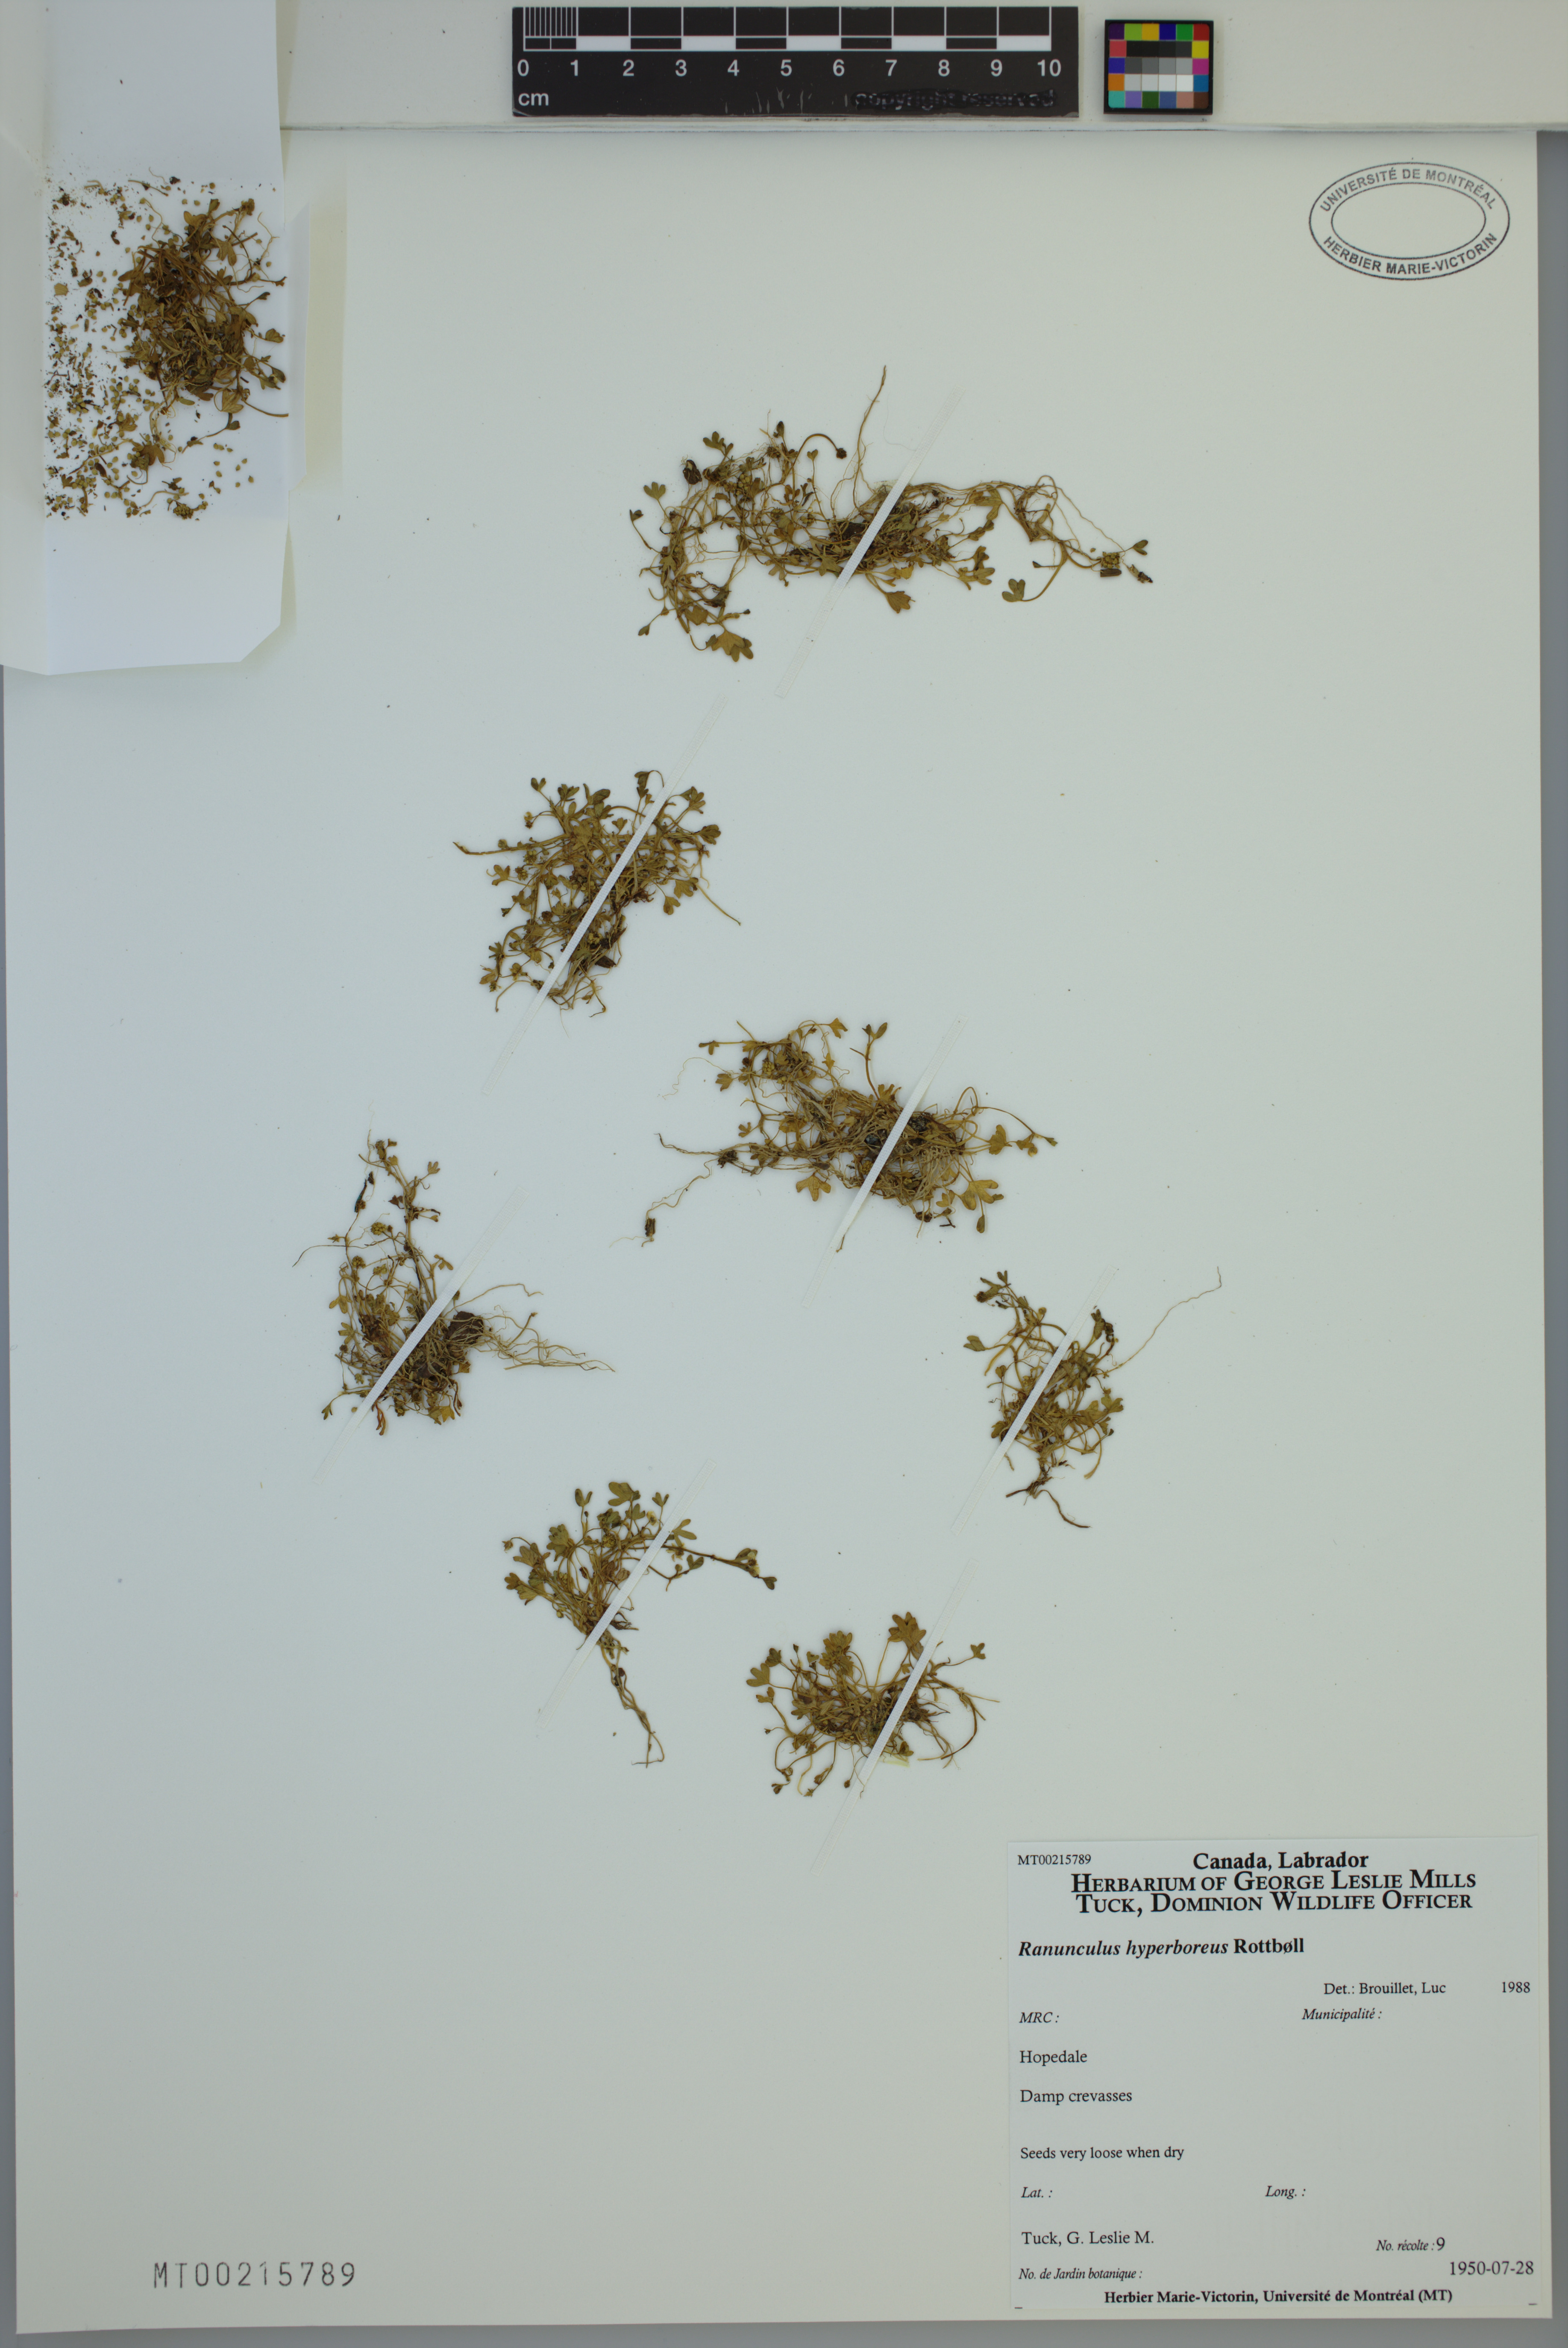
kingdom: Plantae
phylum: Tracheophyta
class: Magnoliopsida
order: Ranunculales
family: Ranunculaceae
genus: Ranunculus
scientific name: Ranunculus hyperboreus
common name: Arctic buttercup
